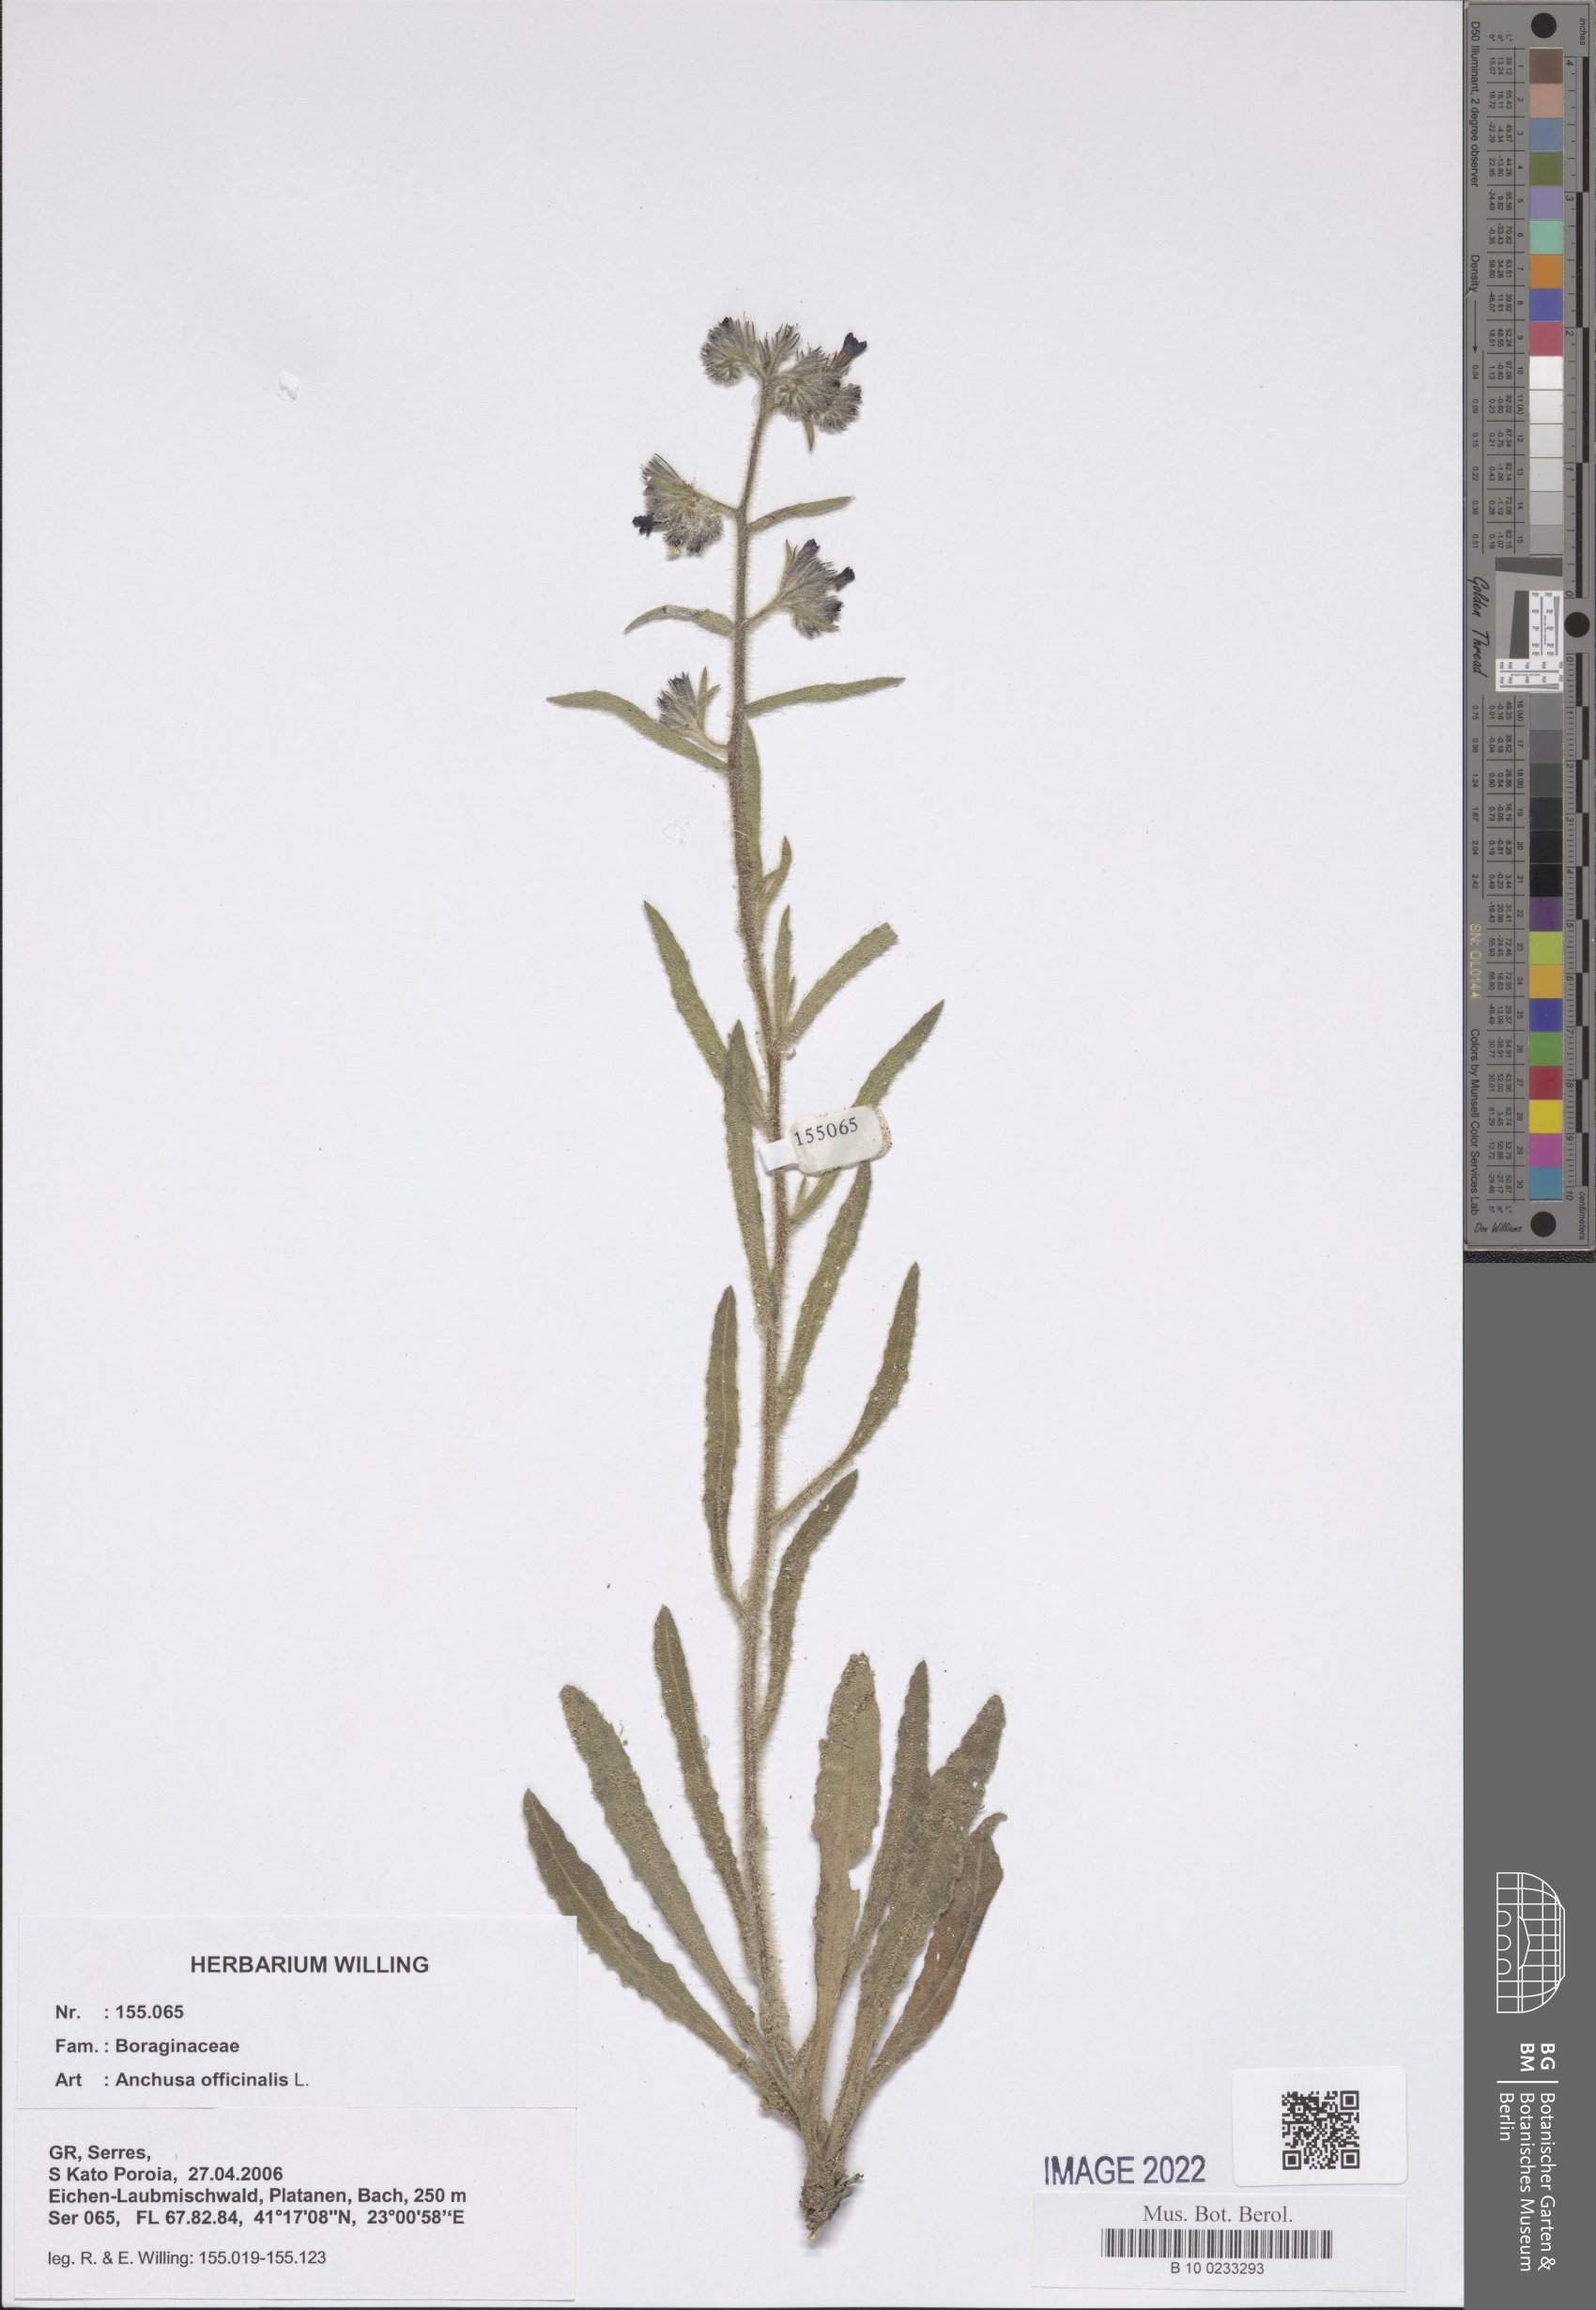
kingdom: Plantae
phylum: Tracheophyta
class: Magnoliopsida
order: Boraginales
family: Boraginaceae
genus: Anchusa
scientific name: Anchusa officinalis
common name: Alkanet
